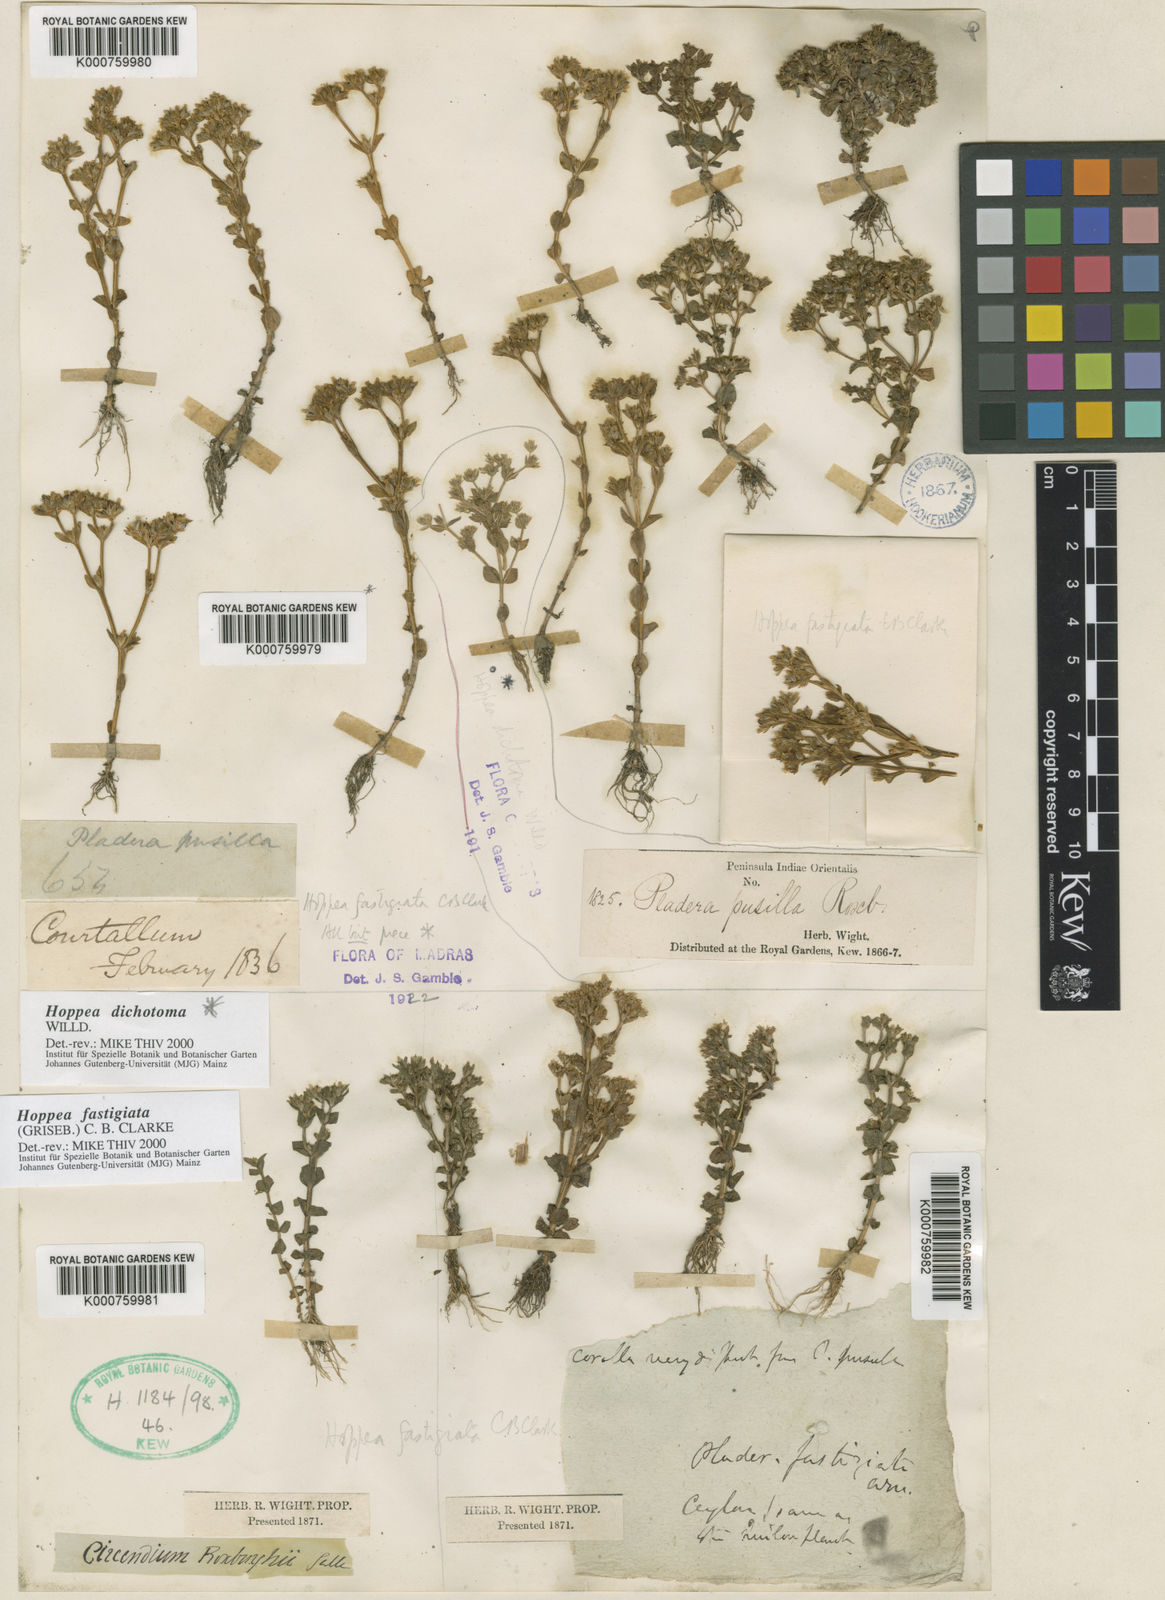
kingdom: Plantae
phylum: Tracheophyta
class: Magnoliopsida
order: Gentianales
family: Gentianaceae
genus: Hoppea
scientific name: Hoppea fastigiata
